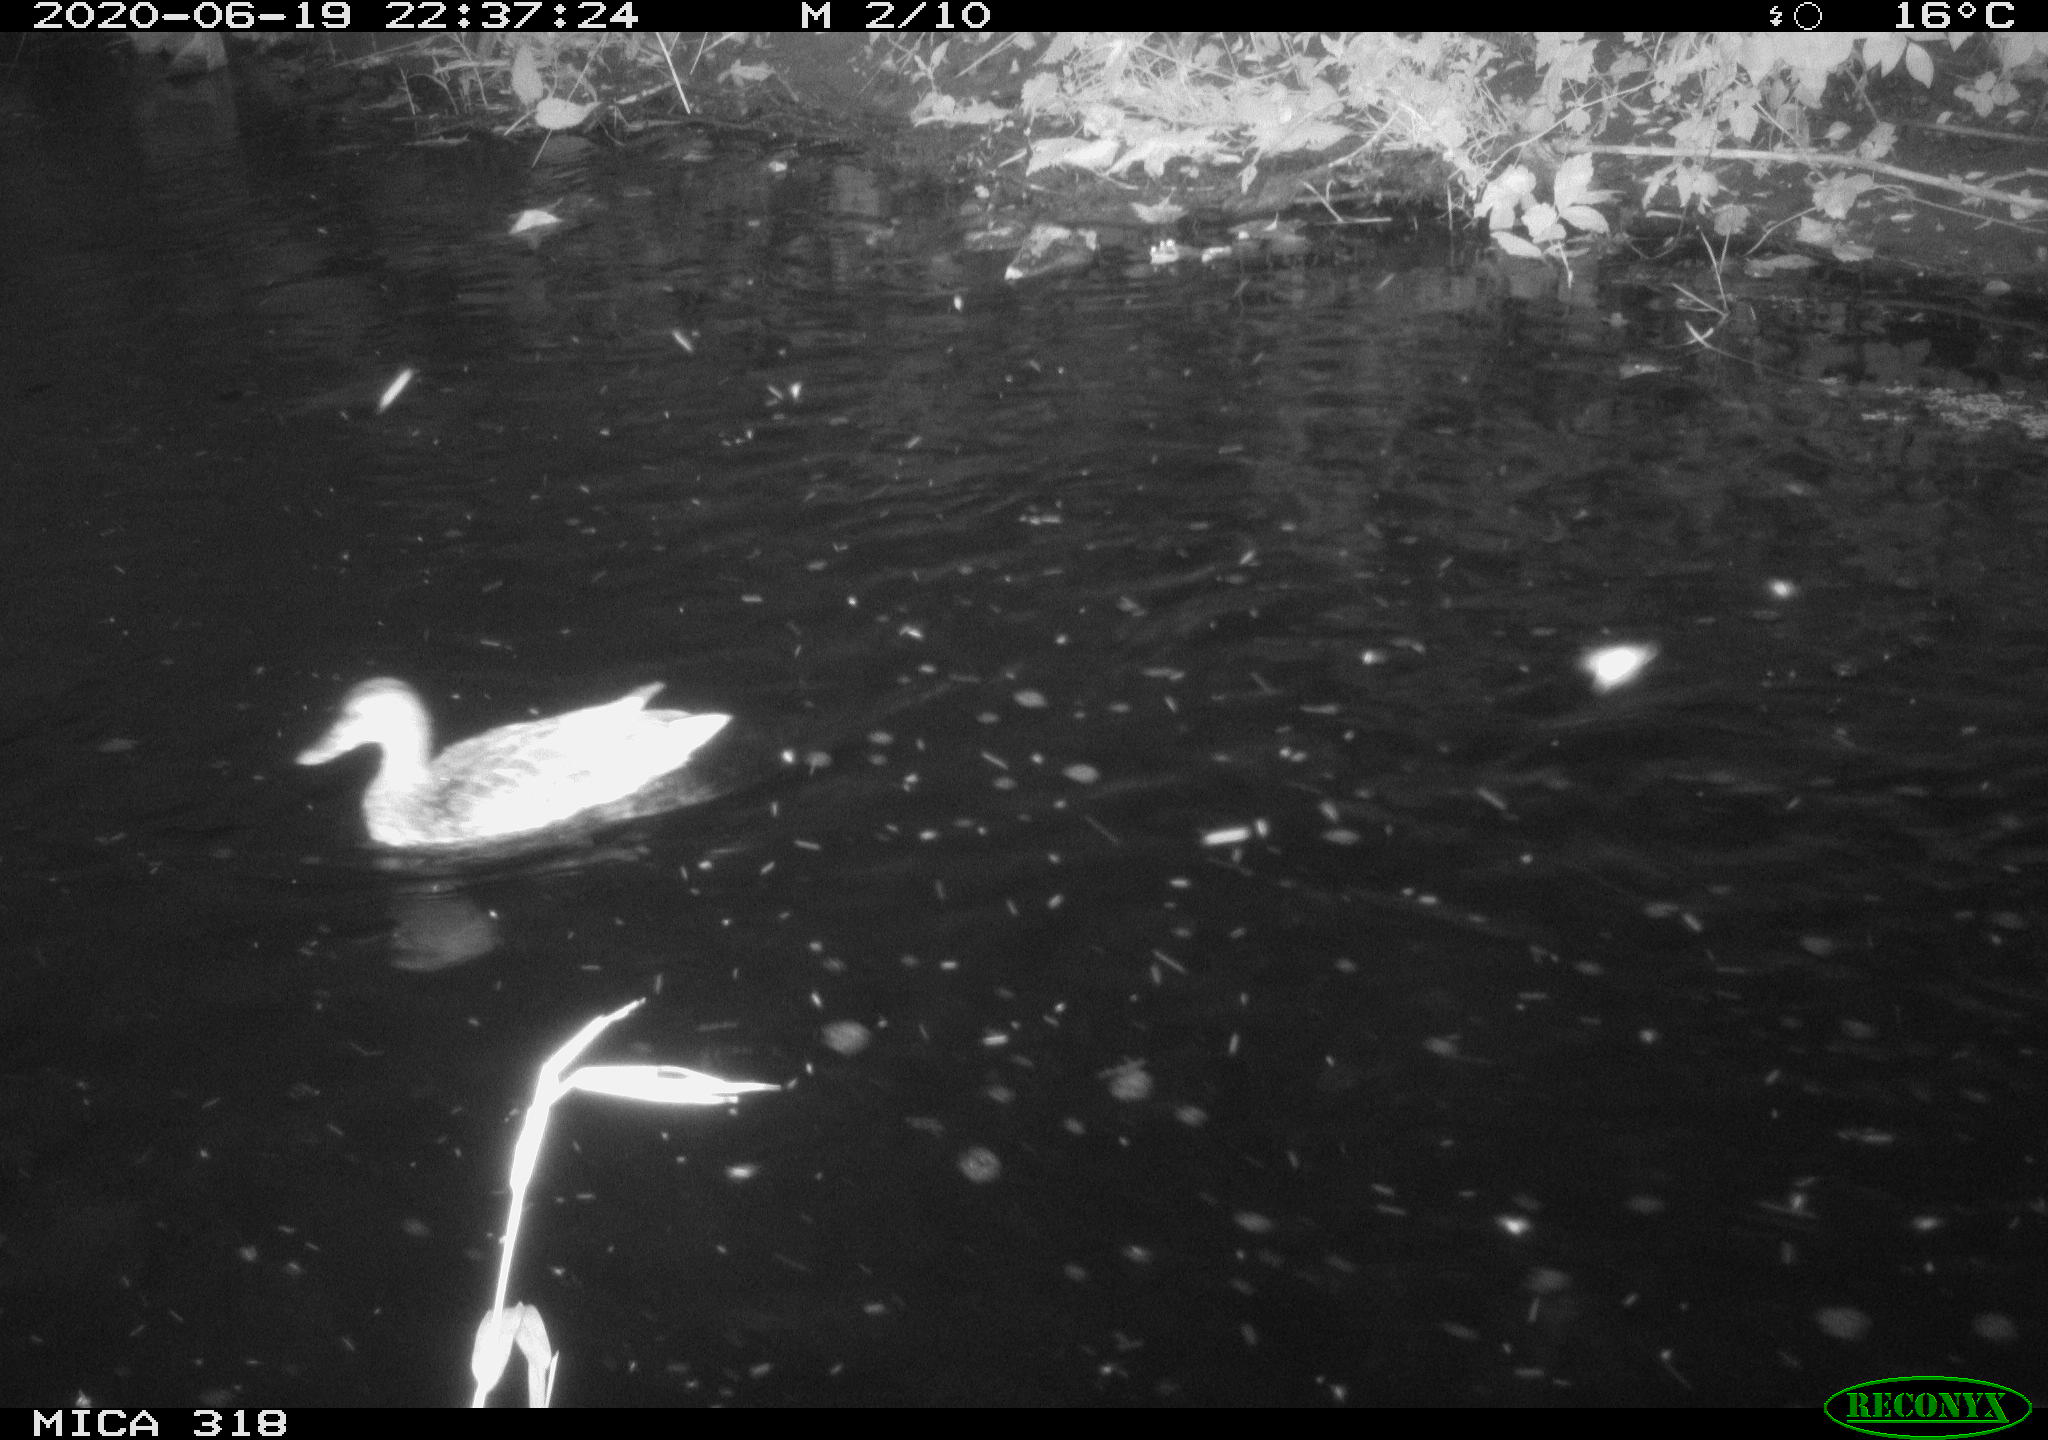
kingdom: Animalia
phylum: Chordata
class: Aves
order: Anseriformes
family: Anatidae
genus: Anas
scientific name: Anas platyrhynchos
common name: Mallard
